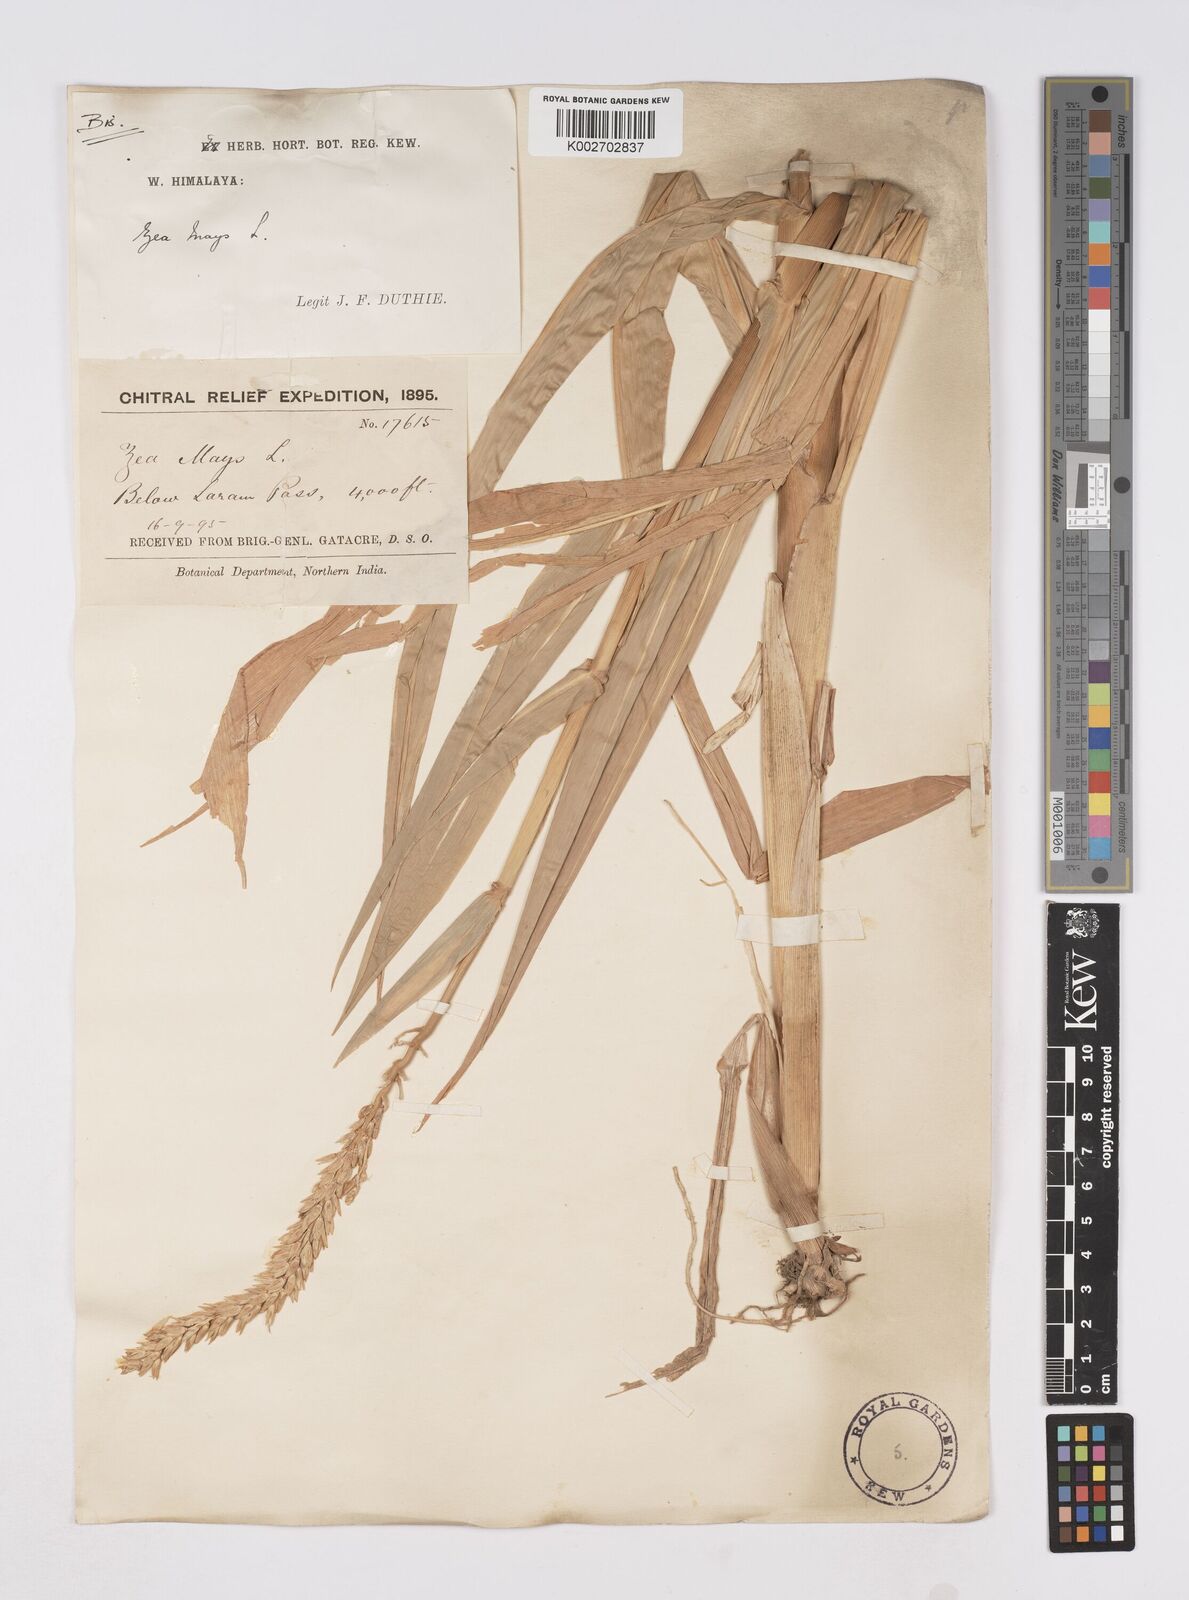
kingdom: Plantae
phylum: Tracheophyta
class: Liliopsida
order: Poales
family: Poaceae
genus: Zea
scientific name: Zea mays
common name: Maize
